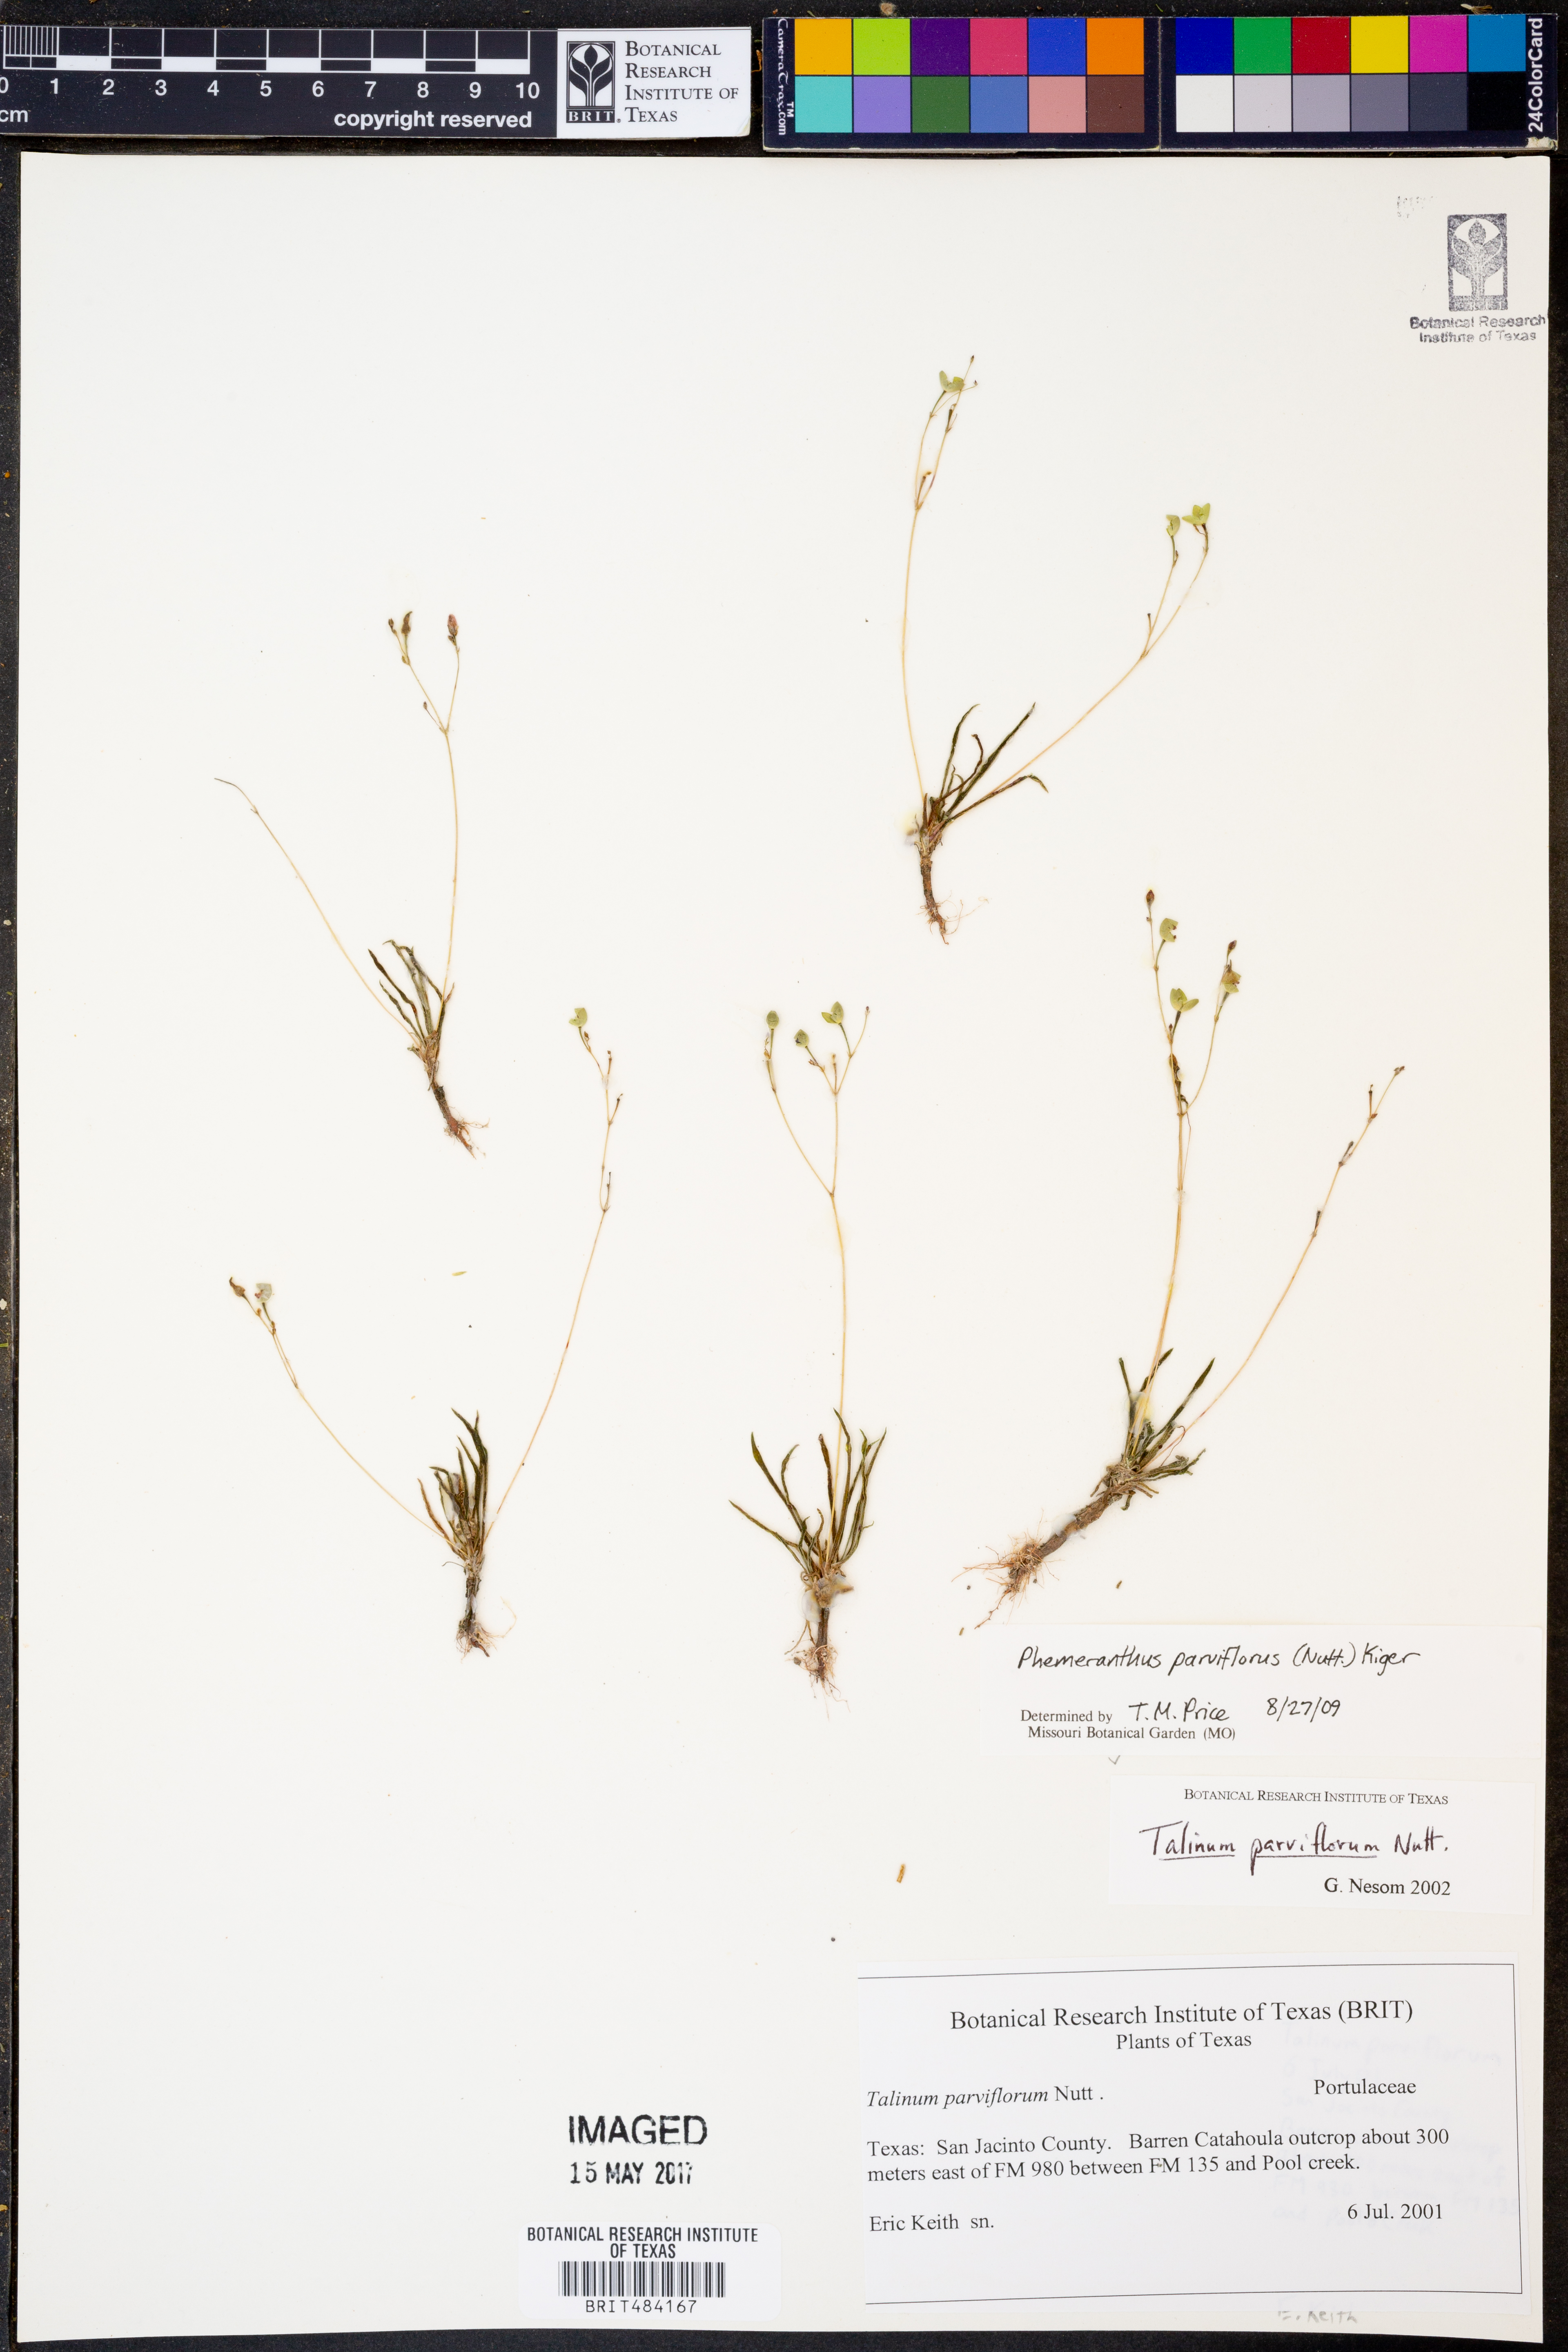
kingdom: Plantae
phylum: Tracheophyta
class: Magnoliopsida
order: Caryophyllales
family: Montiaceae
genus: Phemeranthus
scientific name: Phemeranthus parviflorus
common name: Sunbright
